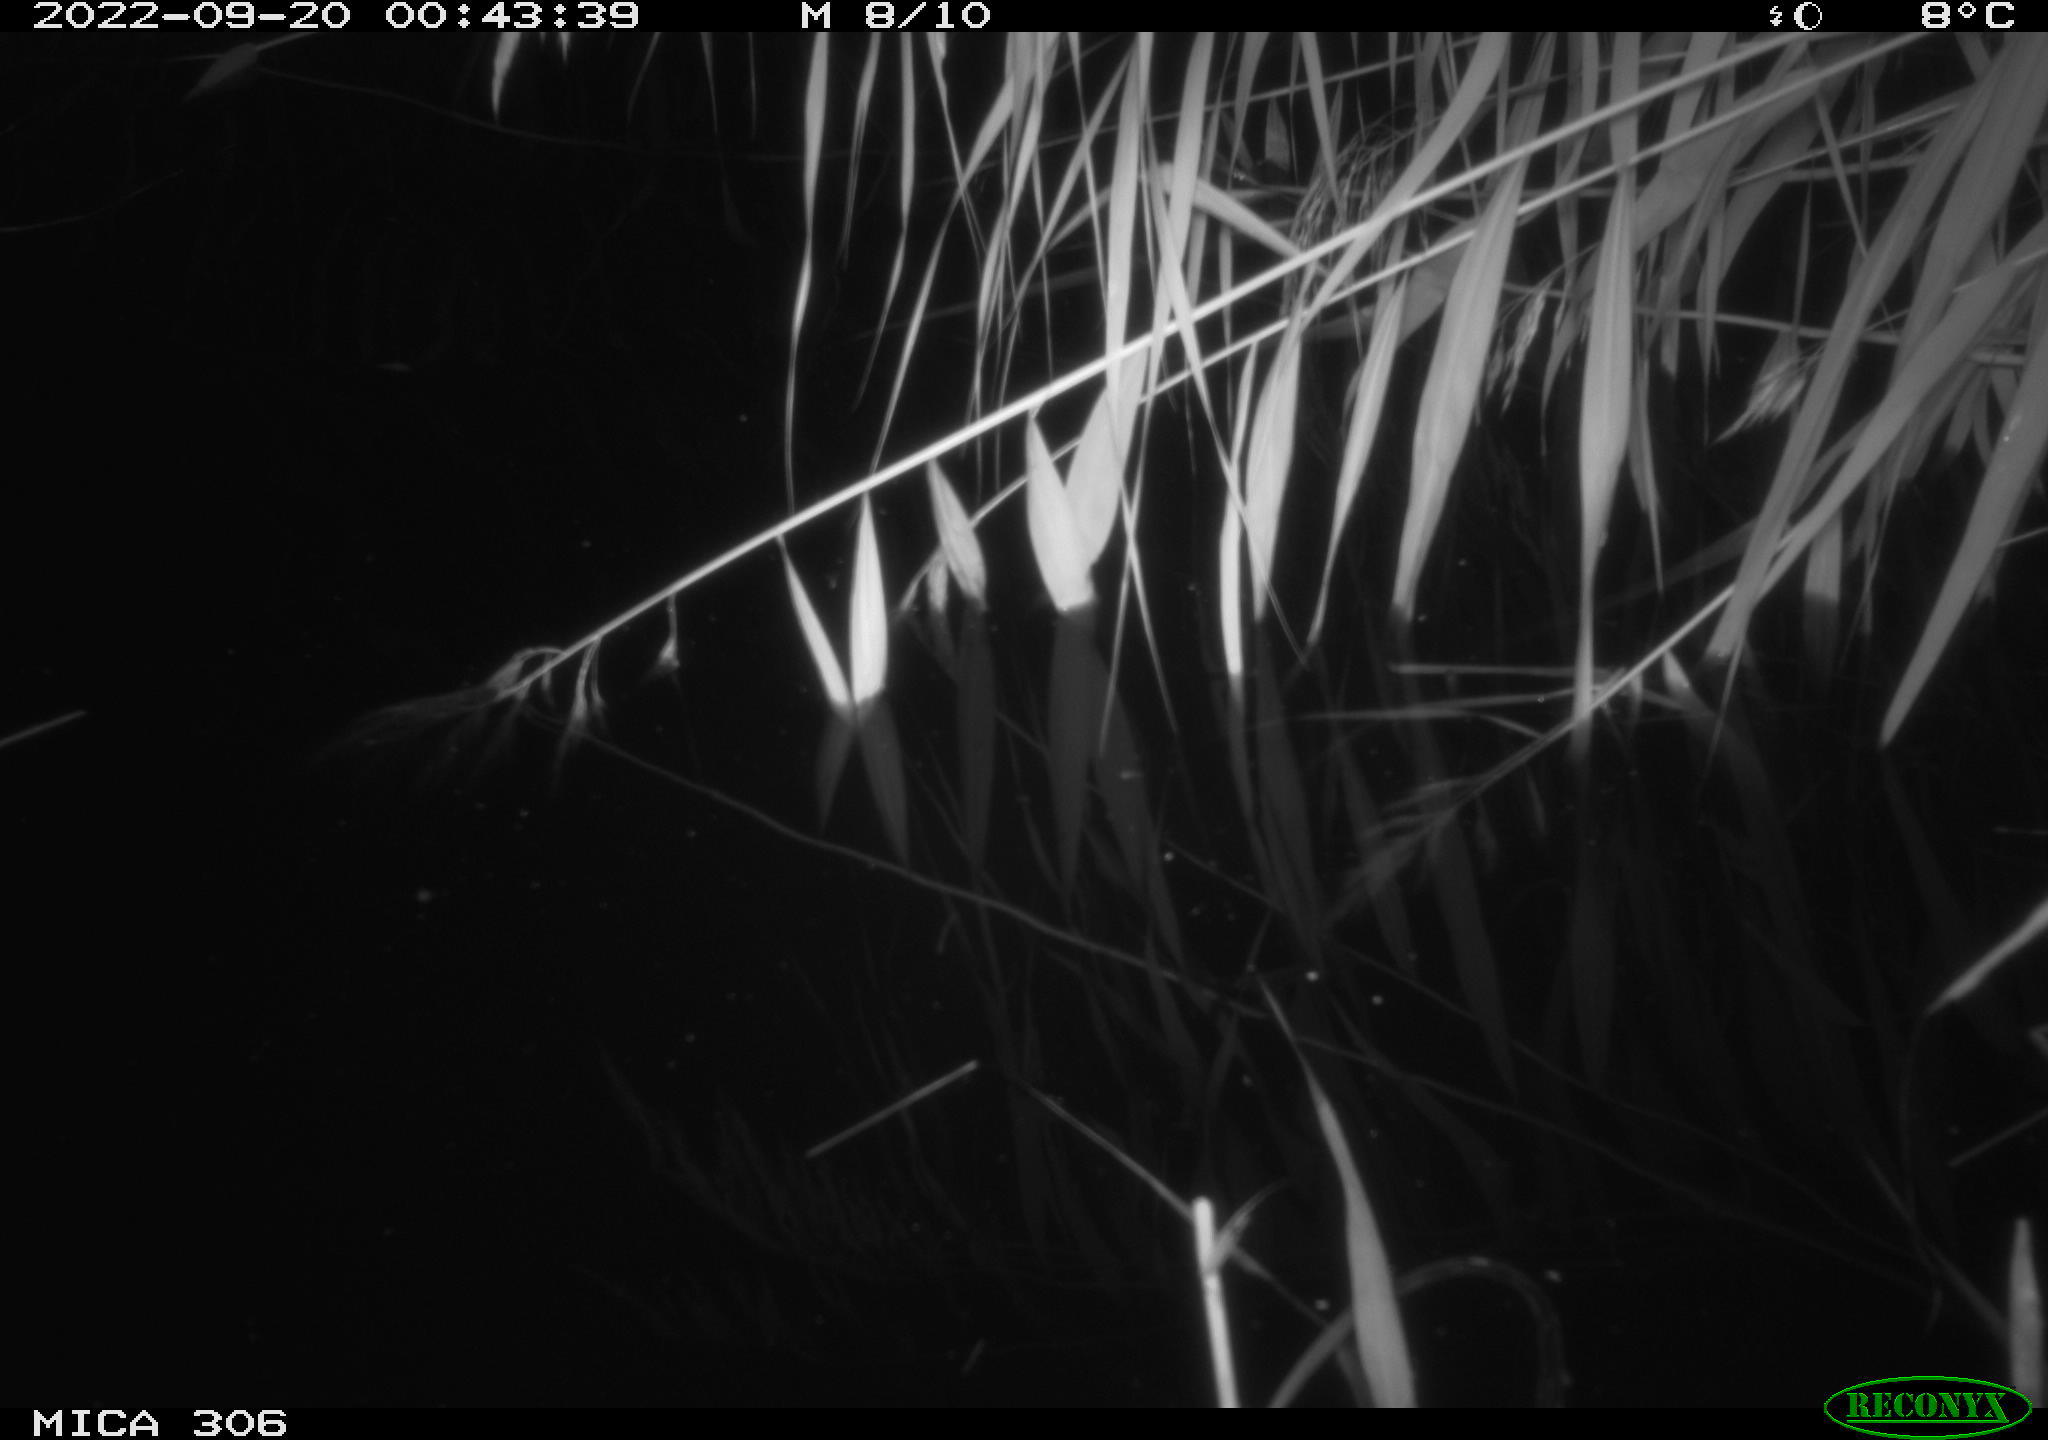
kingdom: Animalia
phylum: Chordata
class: Aves
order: Anseriformes
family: Anatidae
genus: Anas
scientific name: Anas platyrhynchos
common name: Mallard
